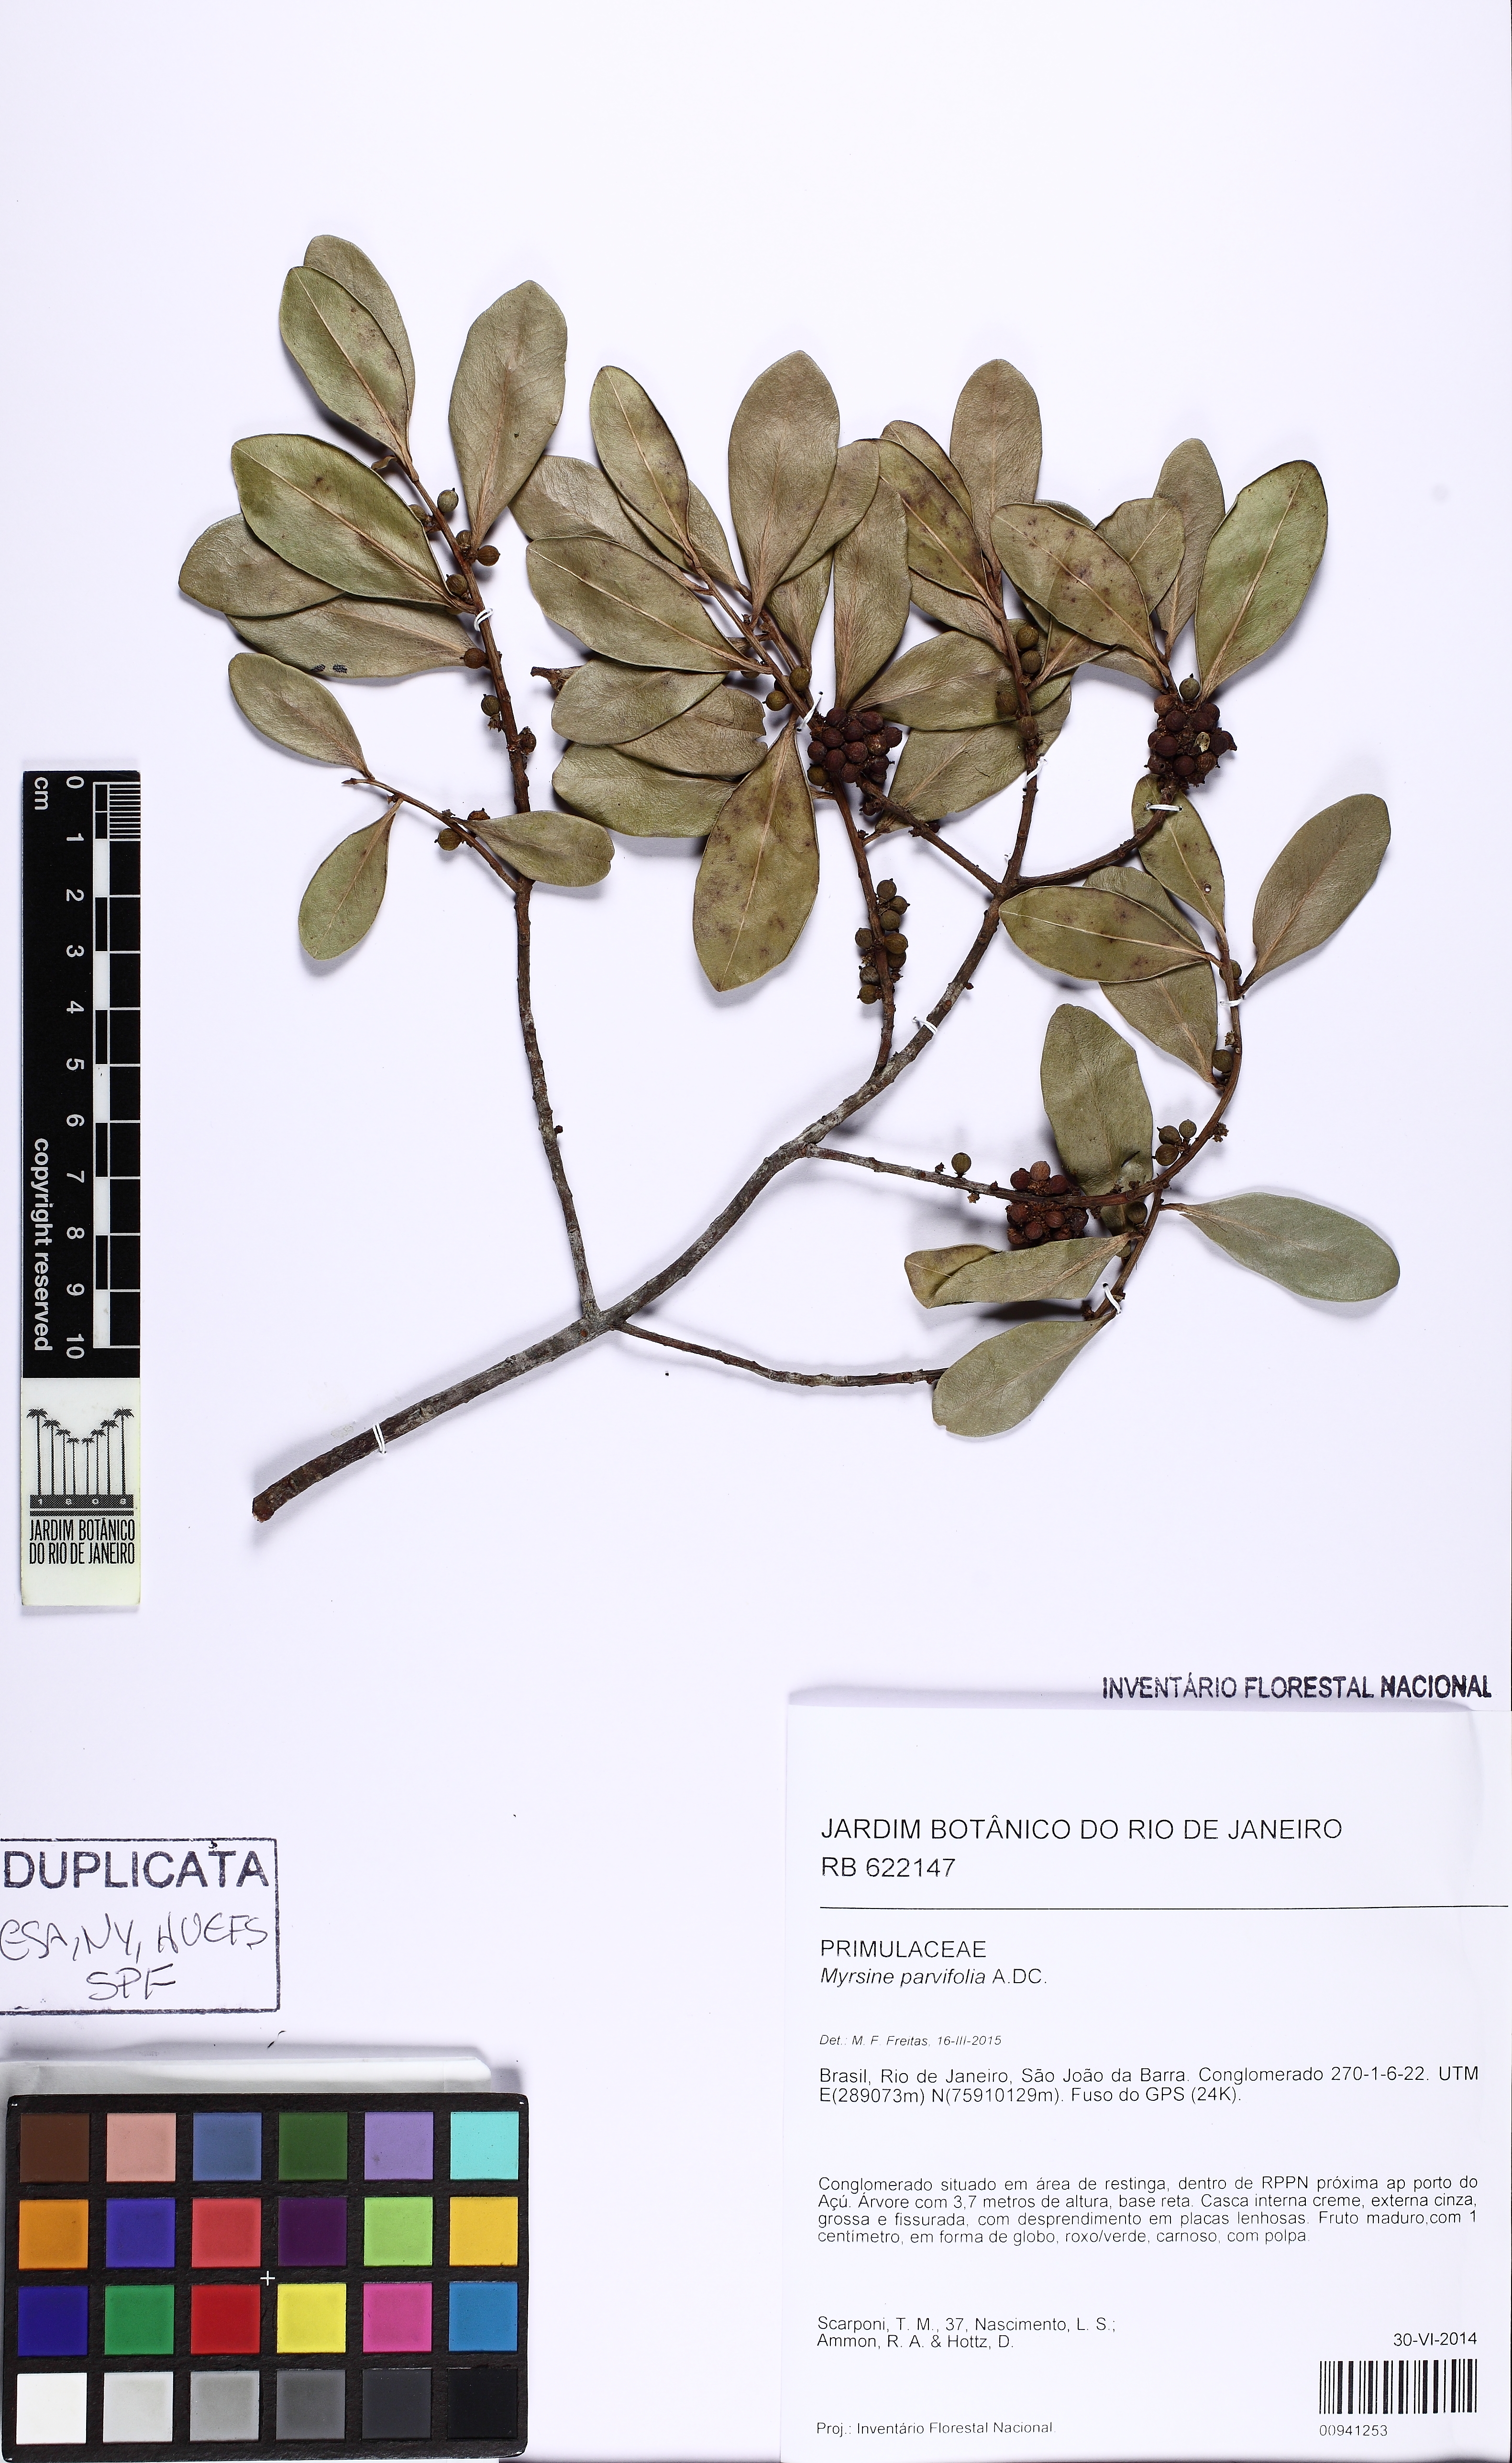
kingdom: Plantae
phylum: Tracheophyta
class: Magnoliopsida
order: Ericales
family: Primulaceae
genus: Myrsine
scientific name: Myrsine parvifolia
